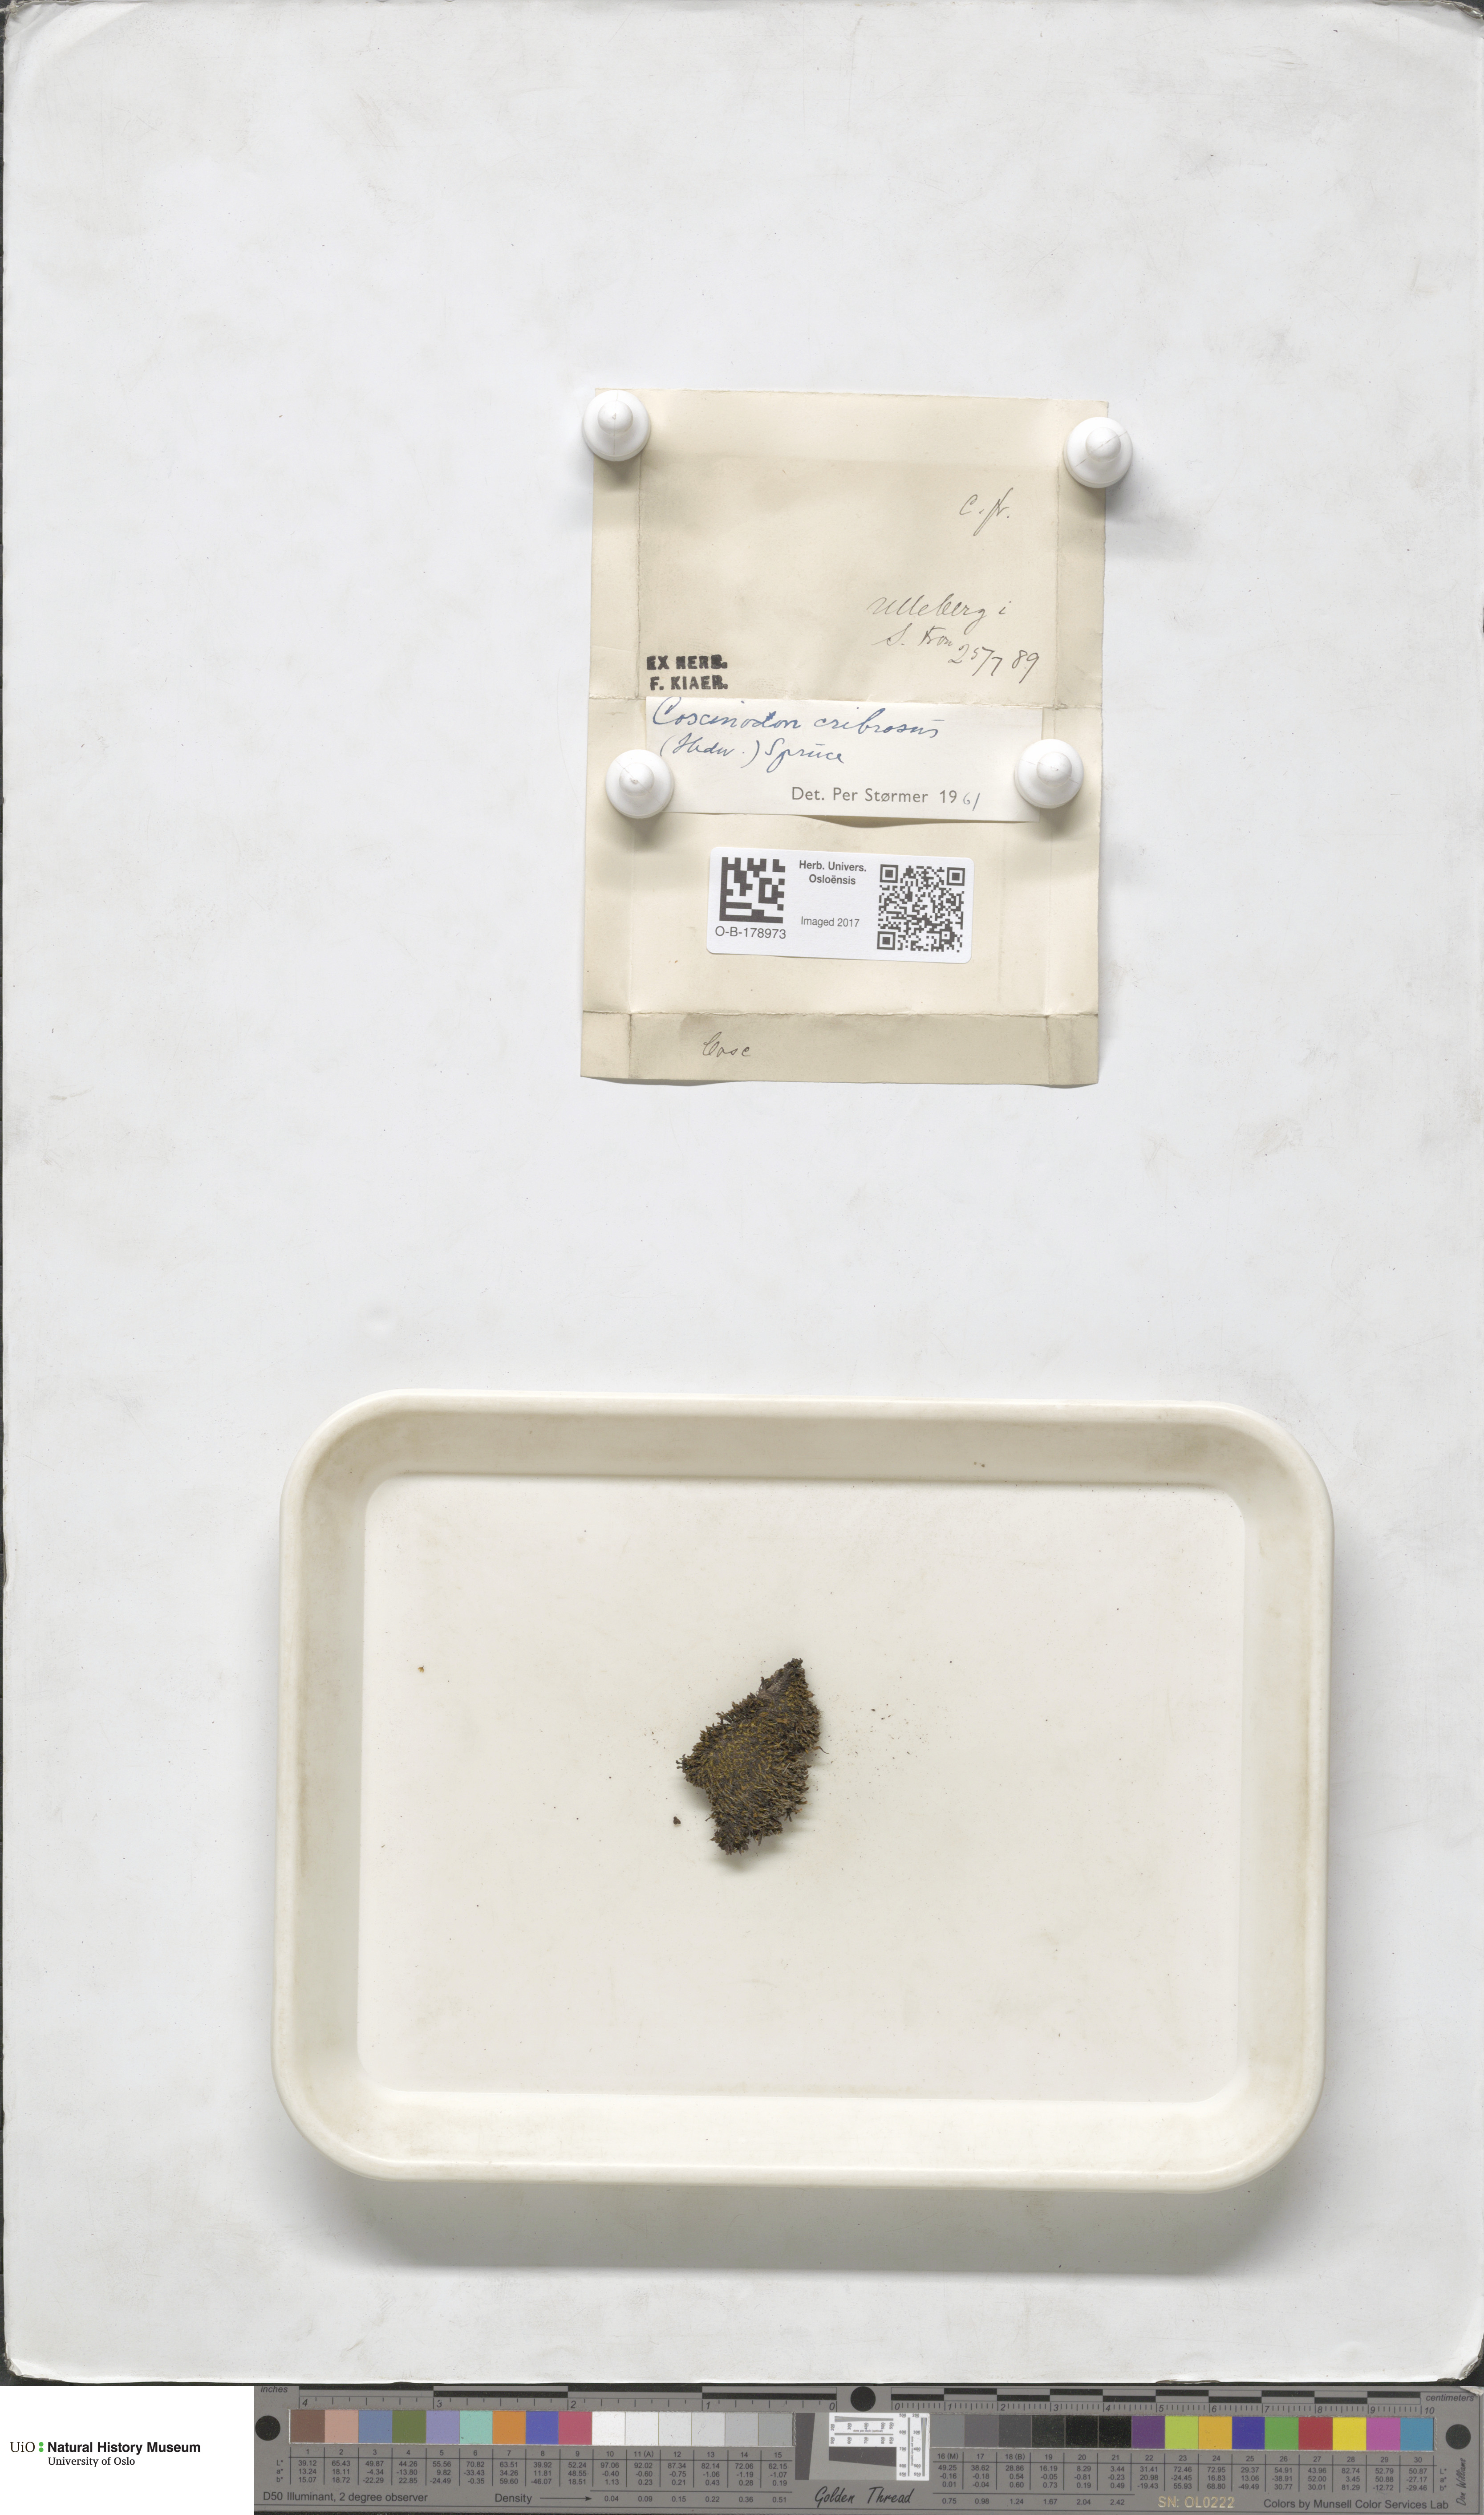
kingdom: Plantae
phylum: Bryophyta
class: Bryopsida
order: Bartramiales
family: Bartramiaceae
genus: Conostomum
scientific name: Conostomum tetragonum
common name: Helmet moss
